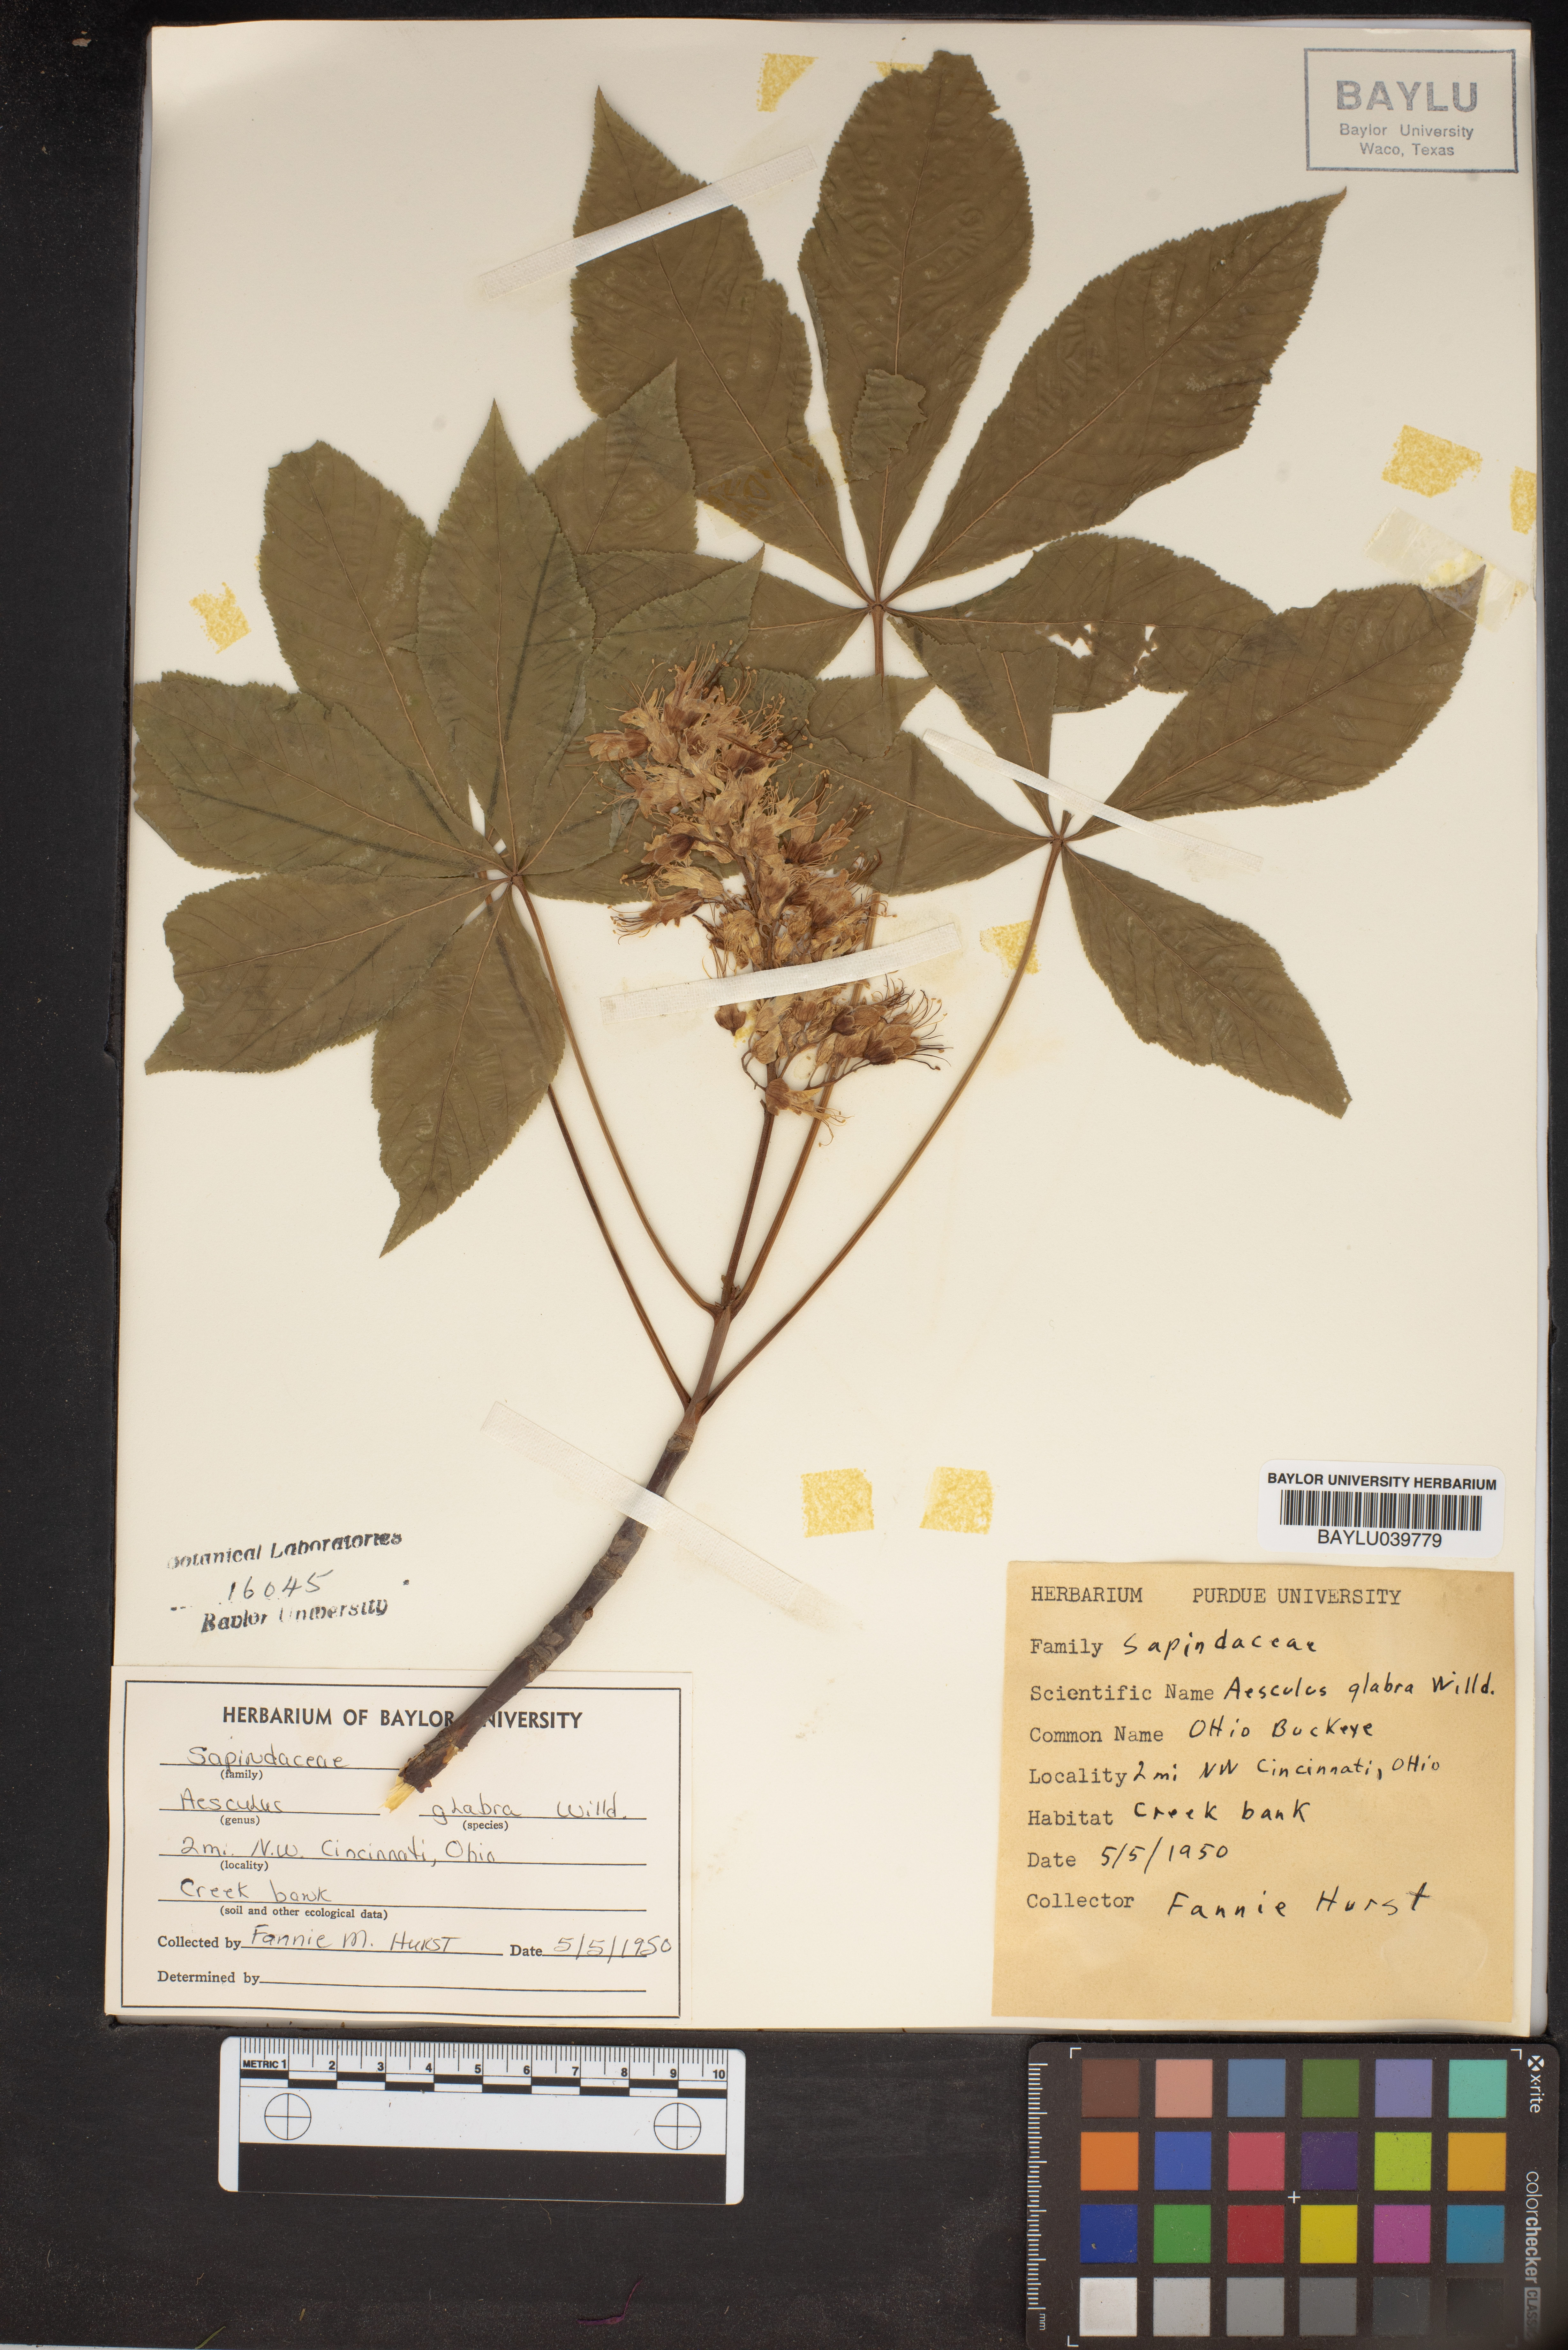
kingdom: Plantae
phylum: Tracheophyta
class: Magnoliopsida
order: Sapindales
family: Sapindaceae
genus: Aesculus
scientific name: Aesculus glabra
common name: Ohio buckeye
